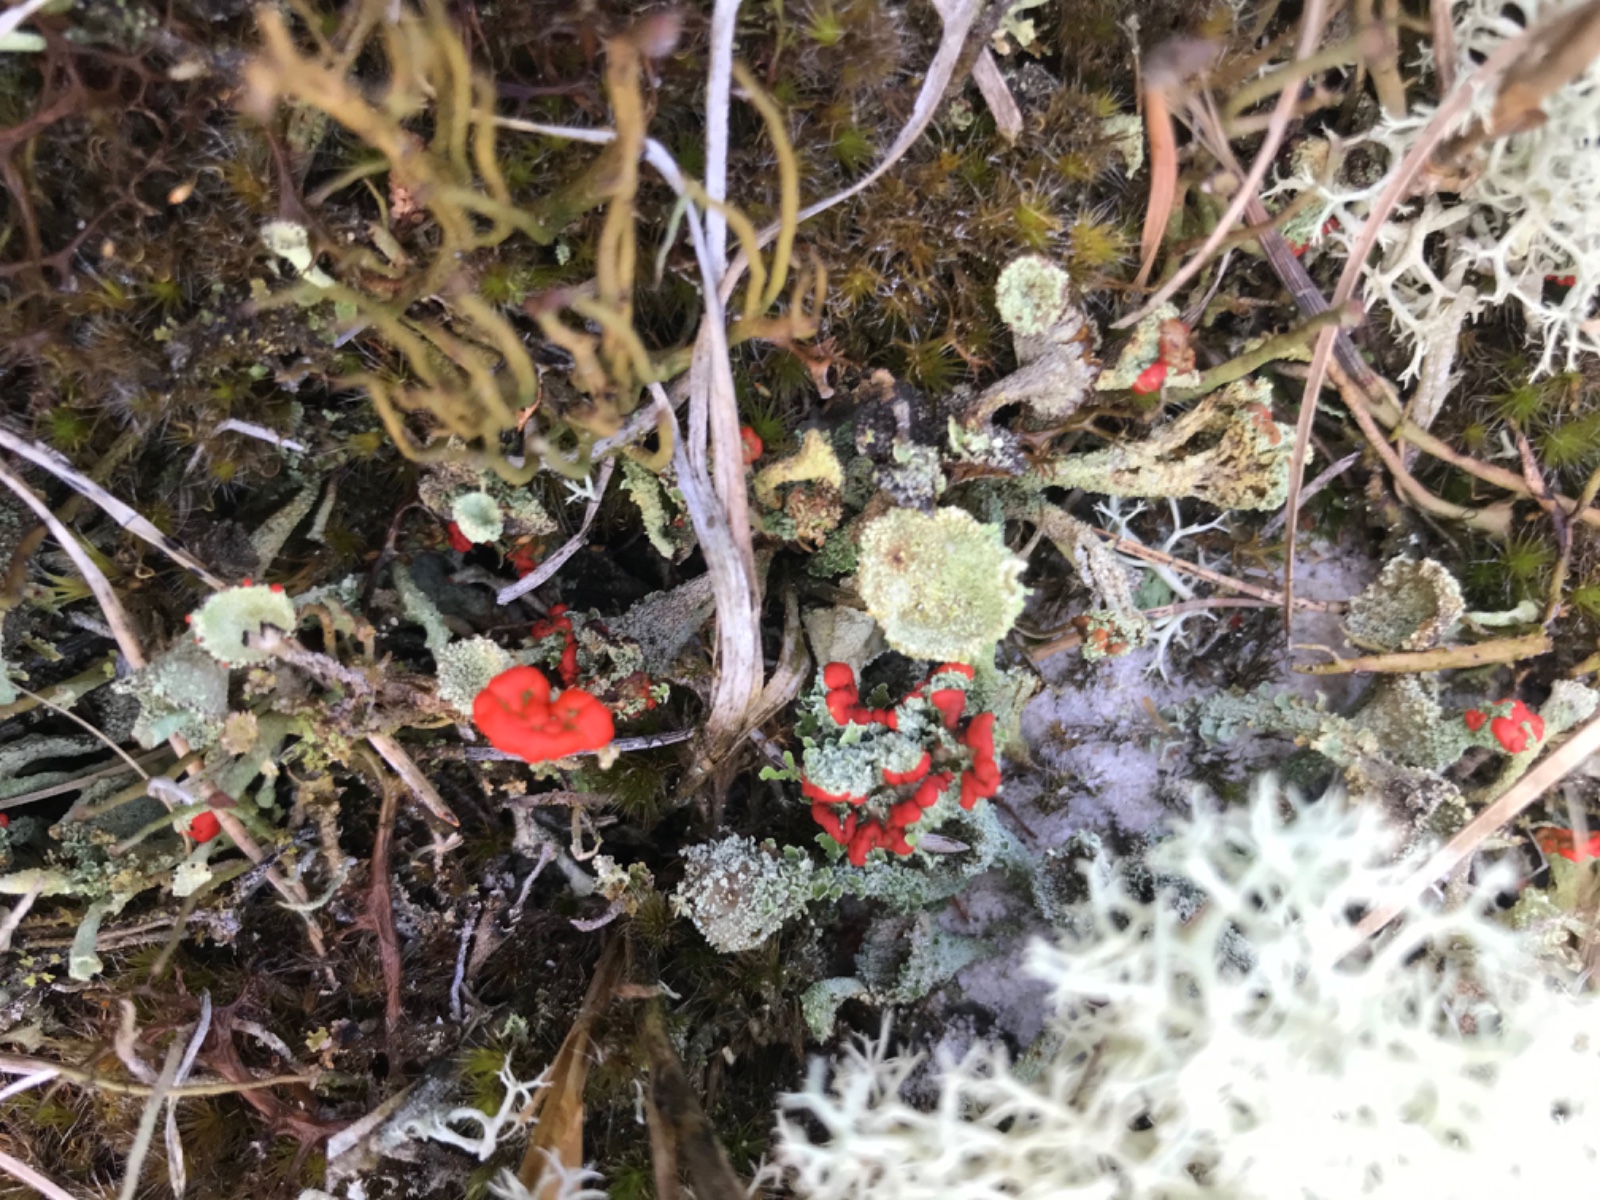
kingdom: Fungi
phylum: Ascomycota
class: Lecanoromycetes
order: Lecanorales
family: Cladoniaceae
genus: Cladonia
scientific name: Cladonia
